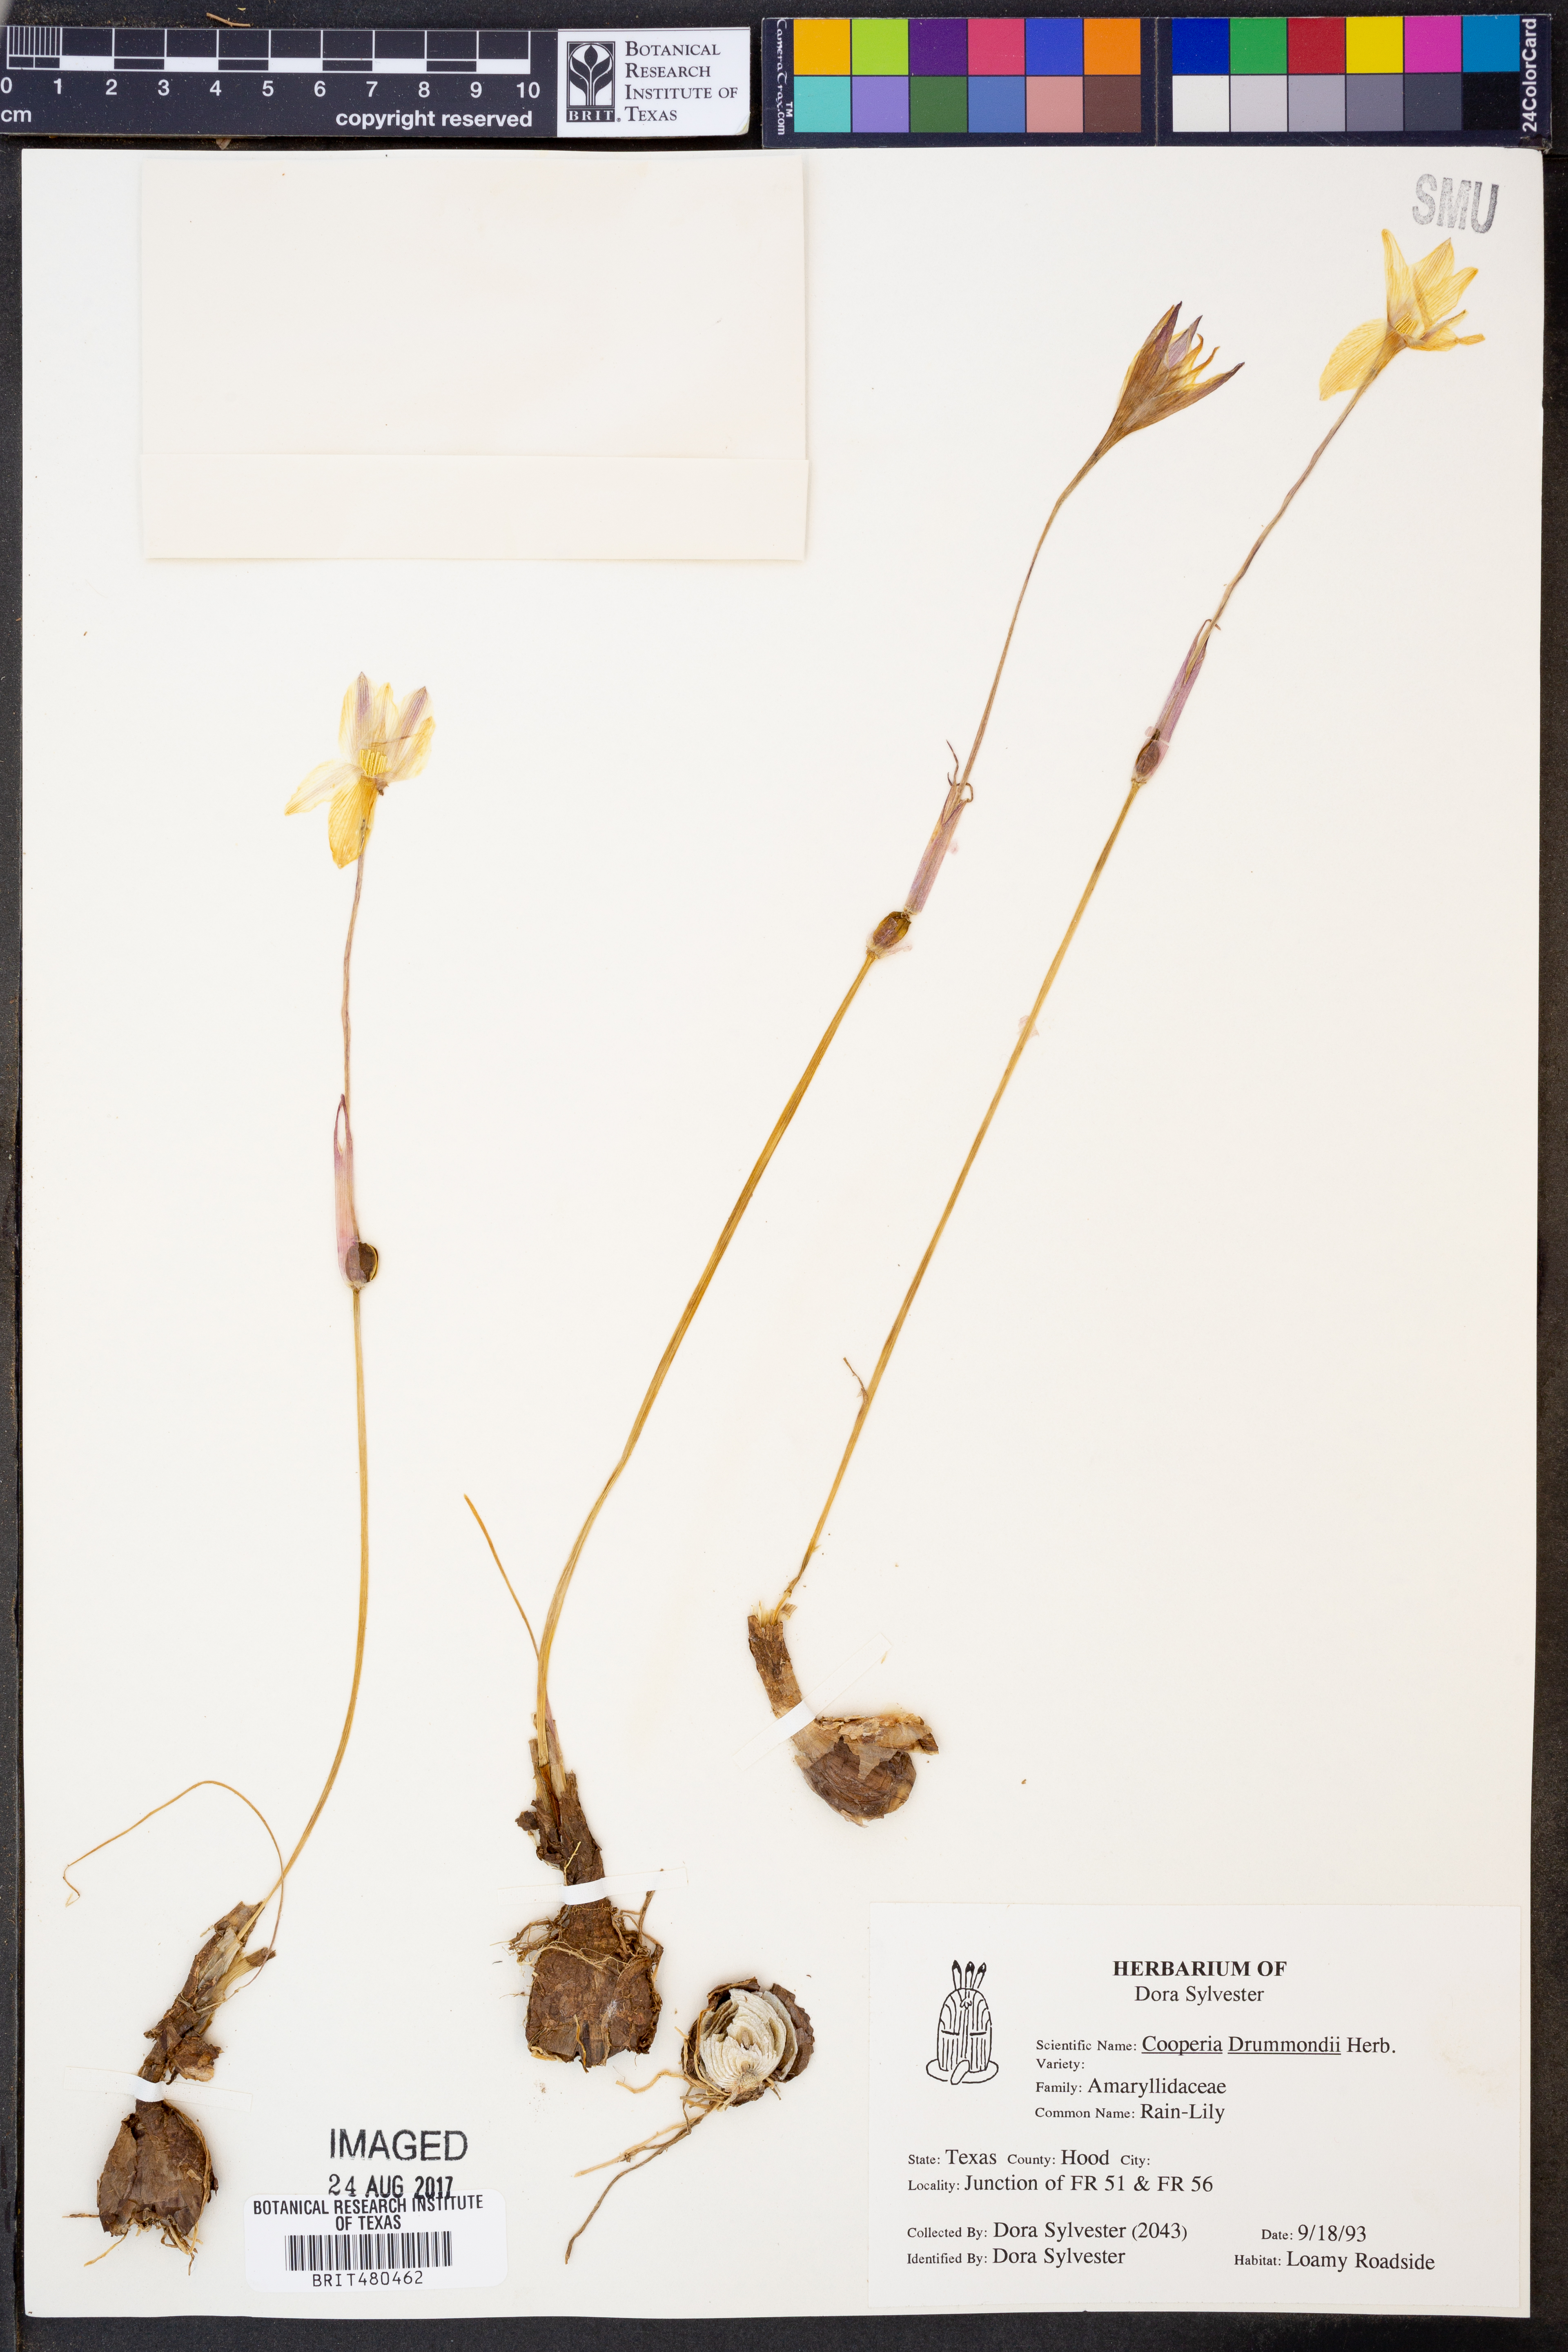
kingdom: Plantae
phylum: Tracheophyta
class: Liliopsida
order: Asparagales
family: Amaryllidaceae
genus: Zephyranthes
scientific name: Zephyranthes chlorosolen
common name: Evening rain-lily
